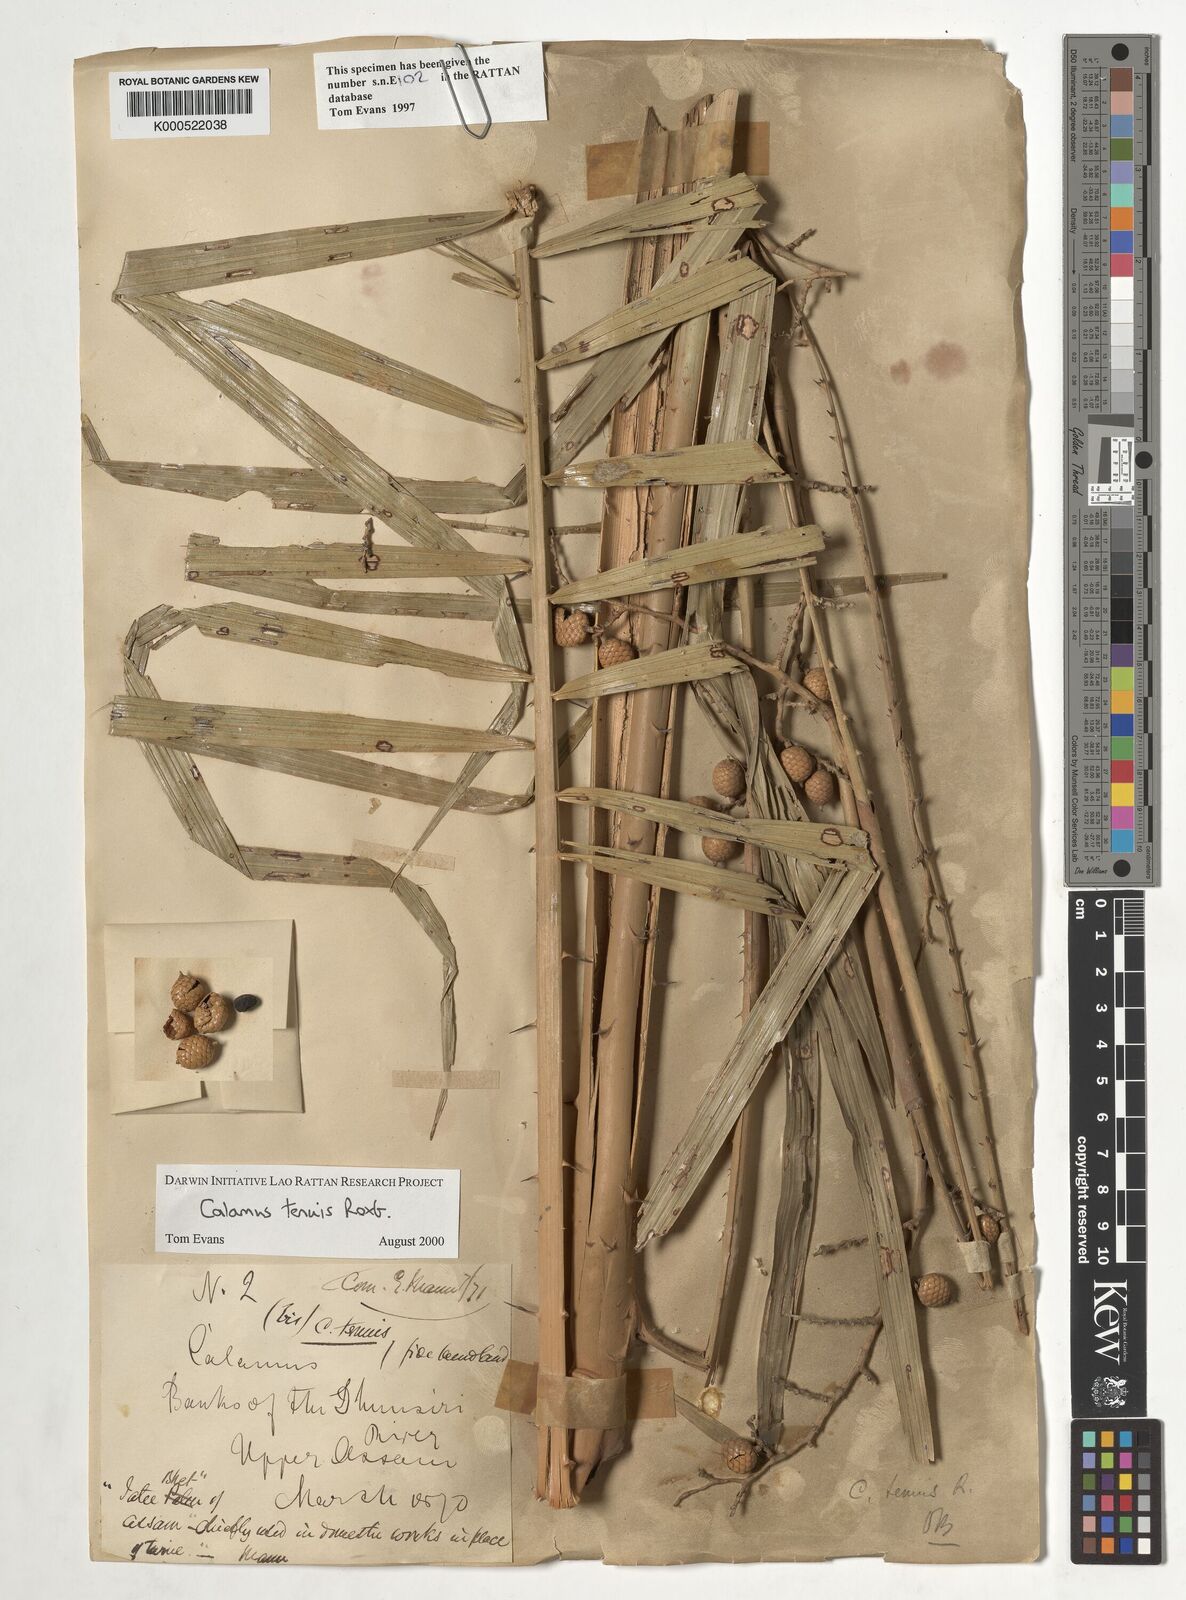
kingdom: Plantae
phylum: Tracheophyta
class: Liliopsida
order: Arecales
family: Arecaceae
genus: Calamus
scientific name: Calamus tenuis
